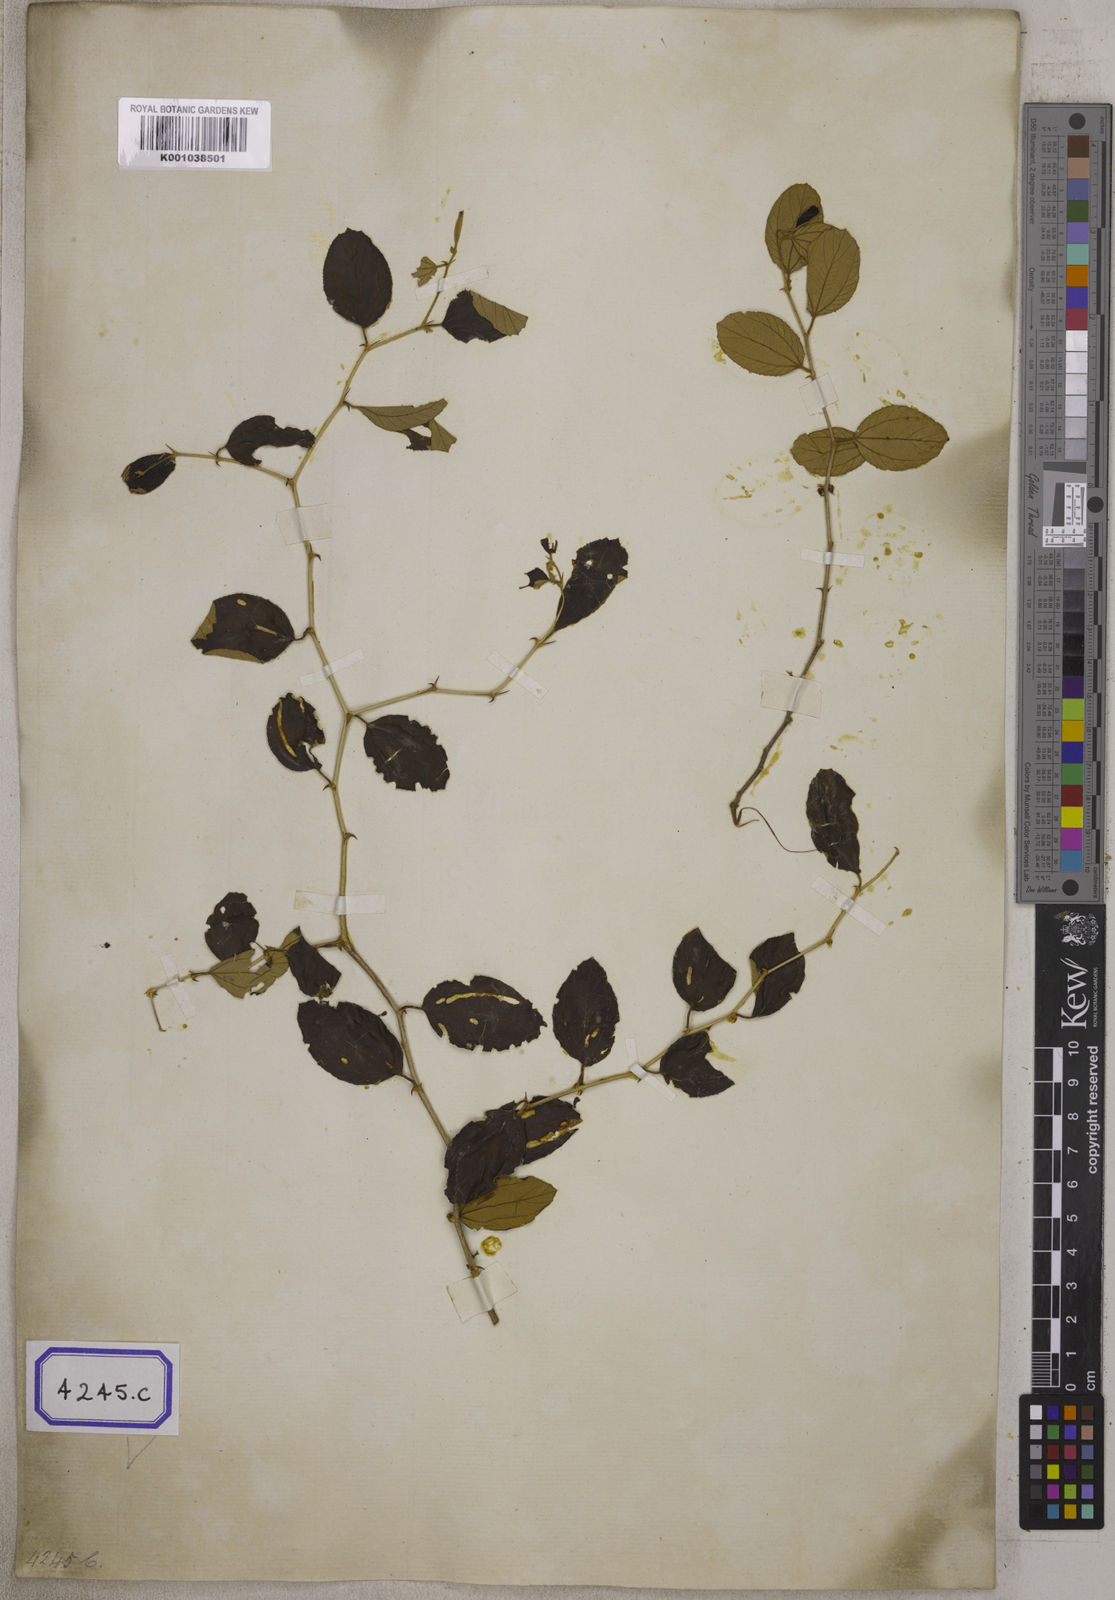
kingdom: Plantae
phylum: Tracheophyta
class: Magnoliopsida
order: Rosales
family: Rhamnaceae
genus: Ziziphus
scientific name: Ziziphus
